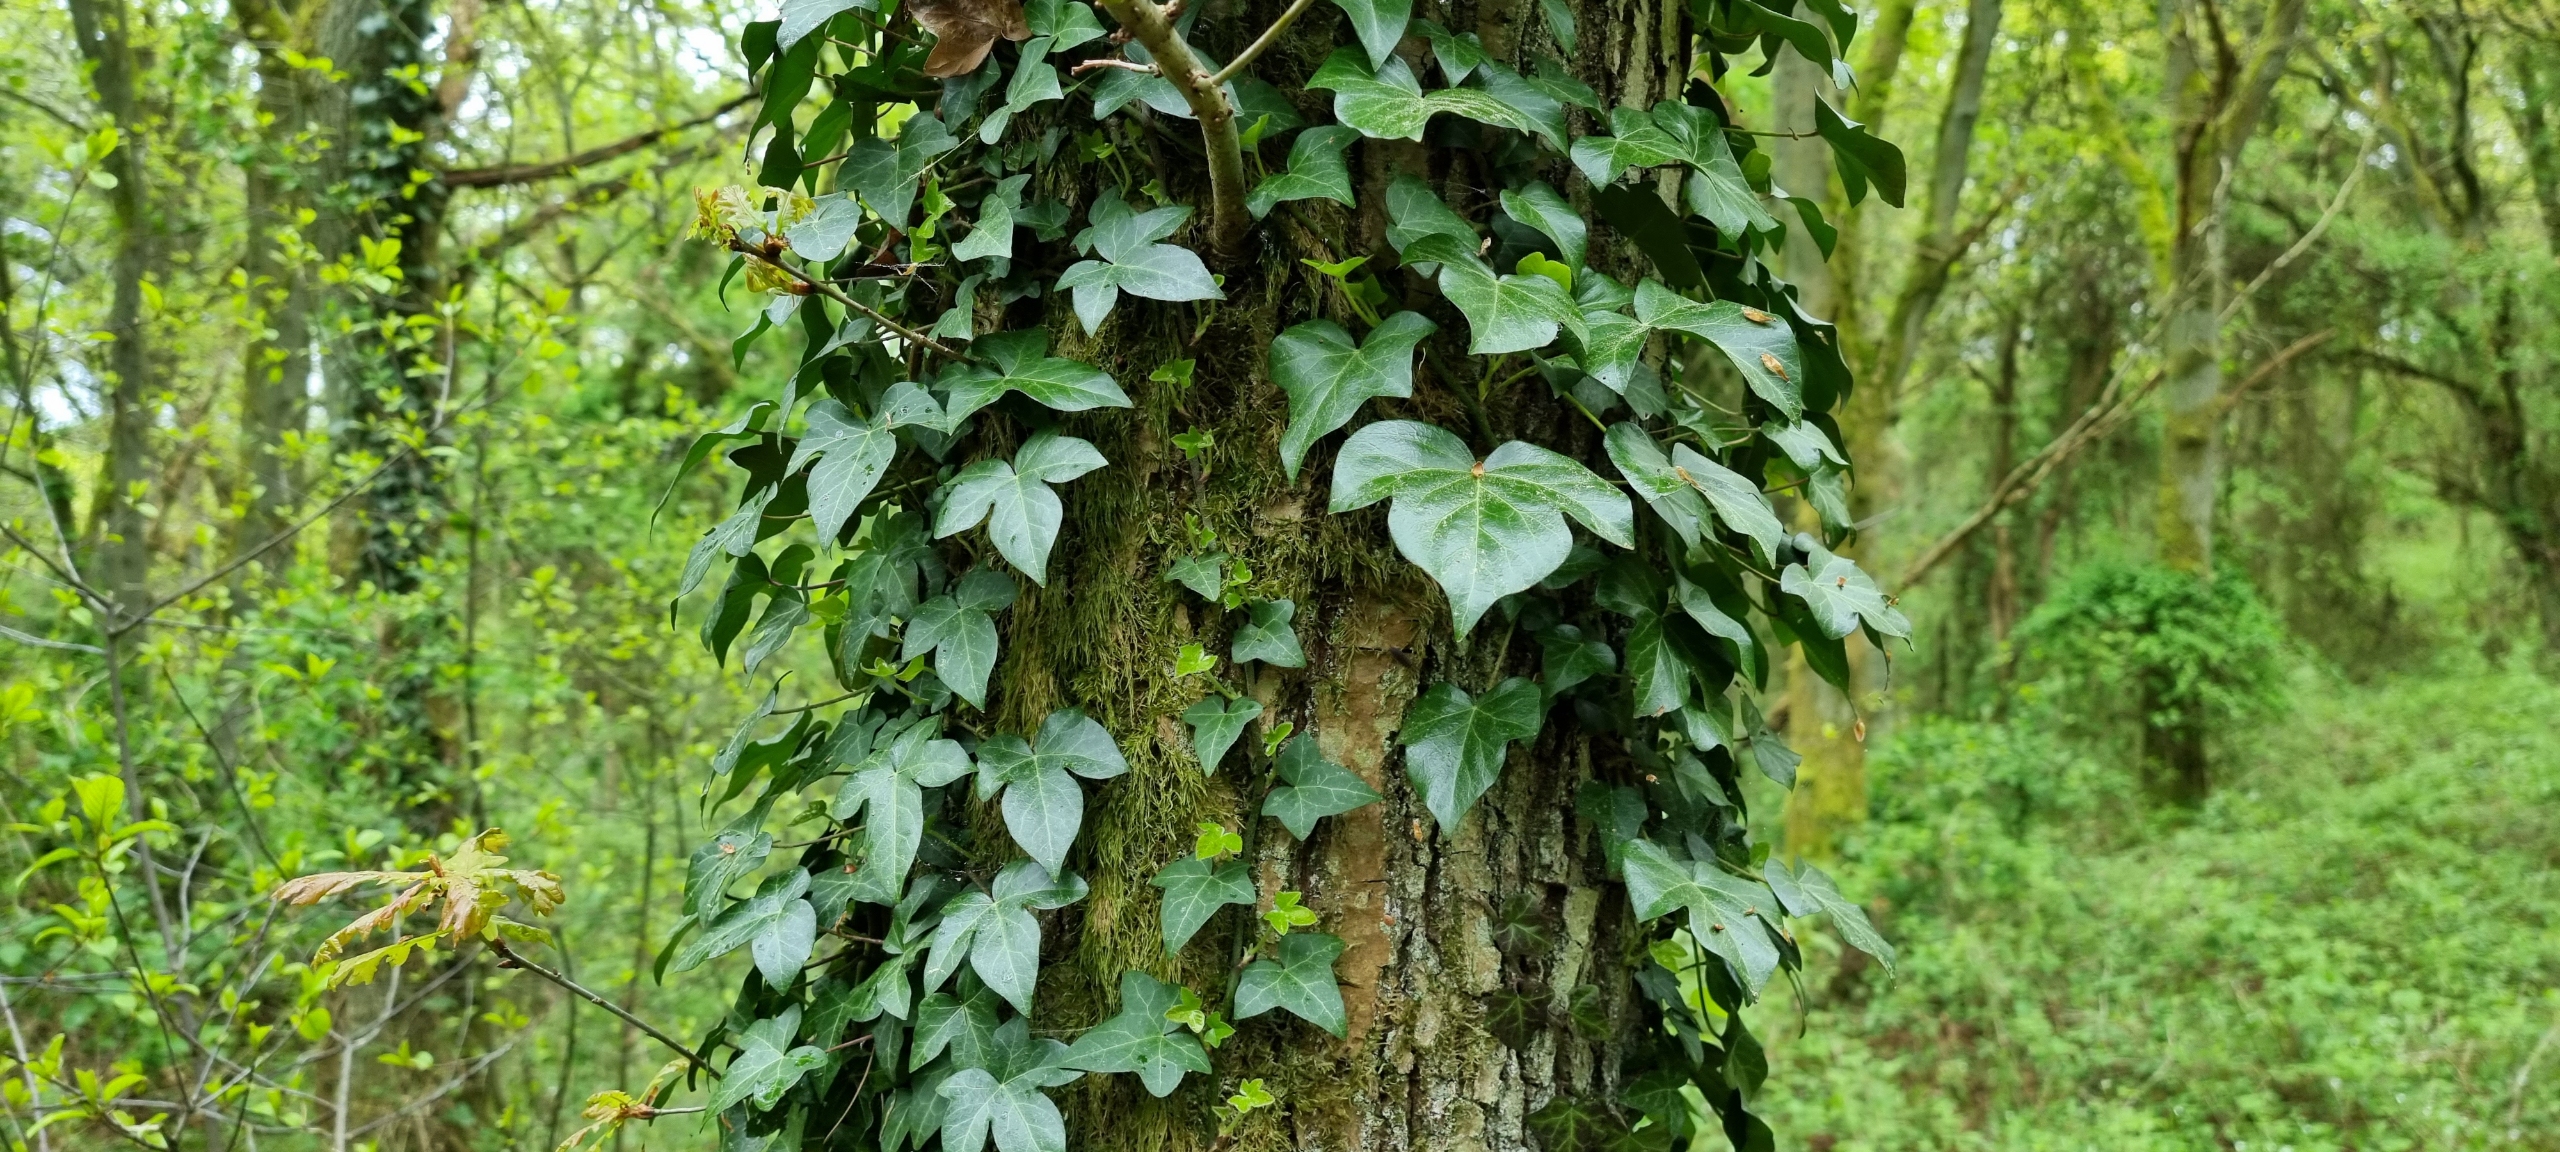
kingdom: Plantae
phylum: Tracheophyta
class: Magnoliopsida
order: Apiales
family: Araliaceae
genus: Hedera
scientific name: Hedera helix
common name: Vedbend
